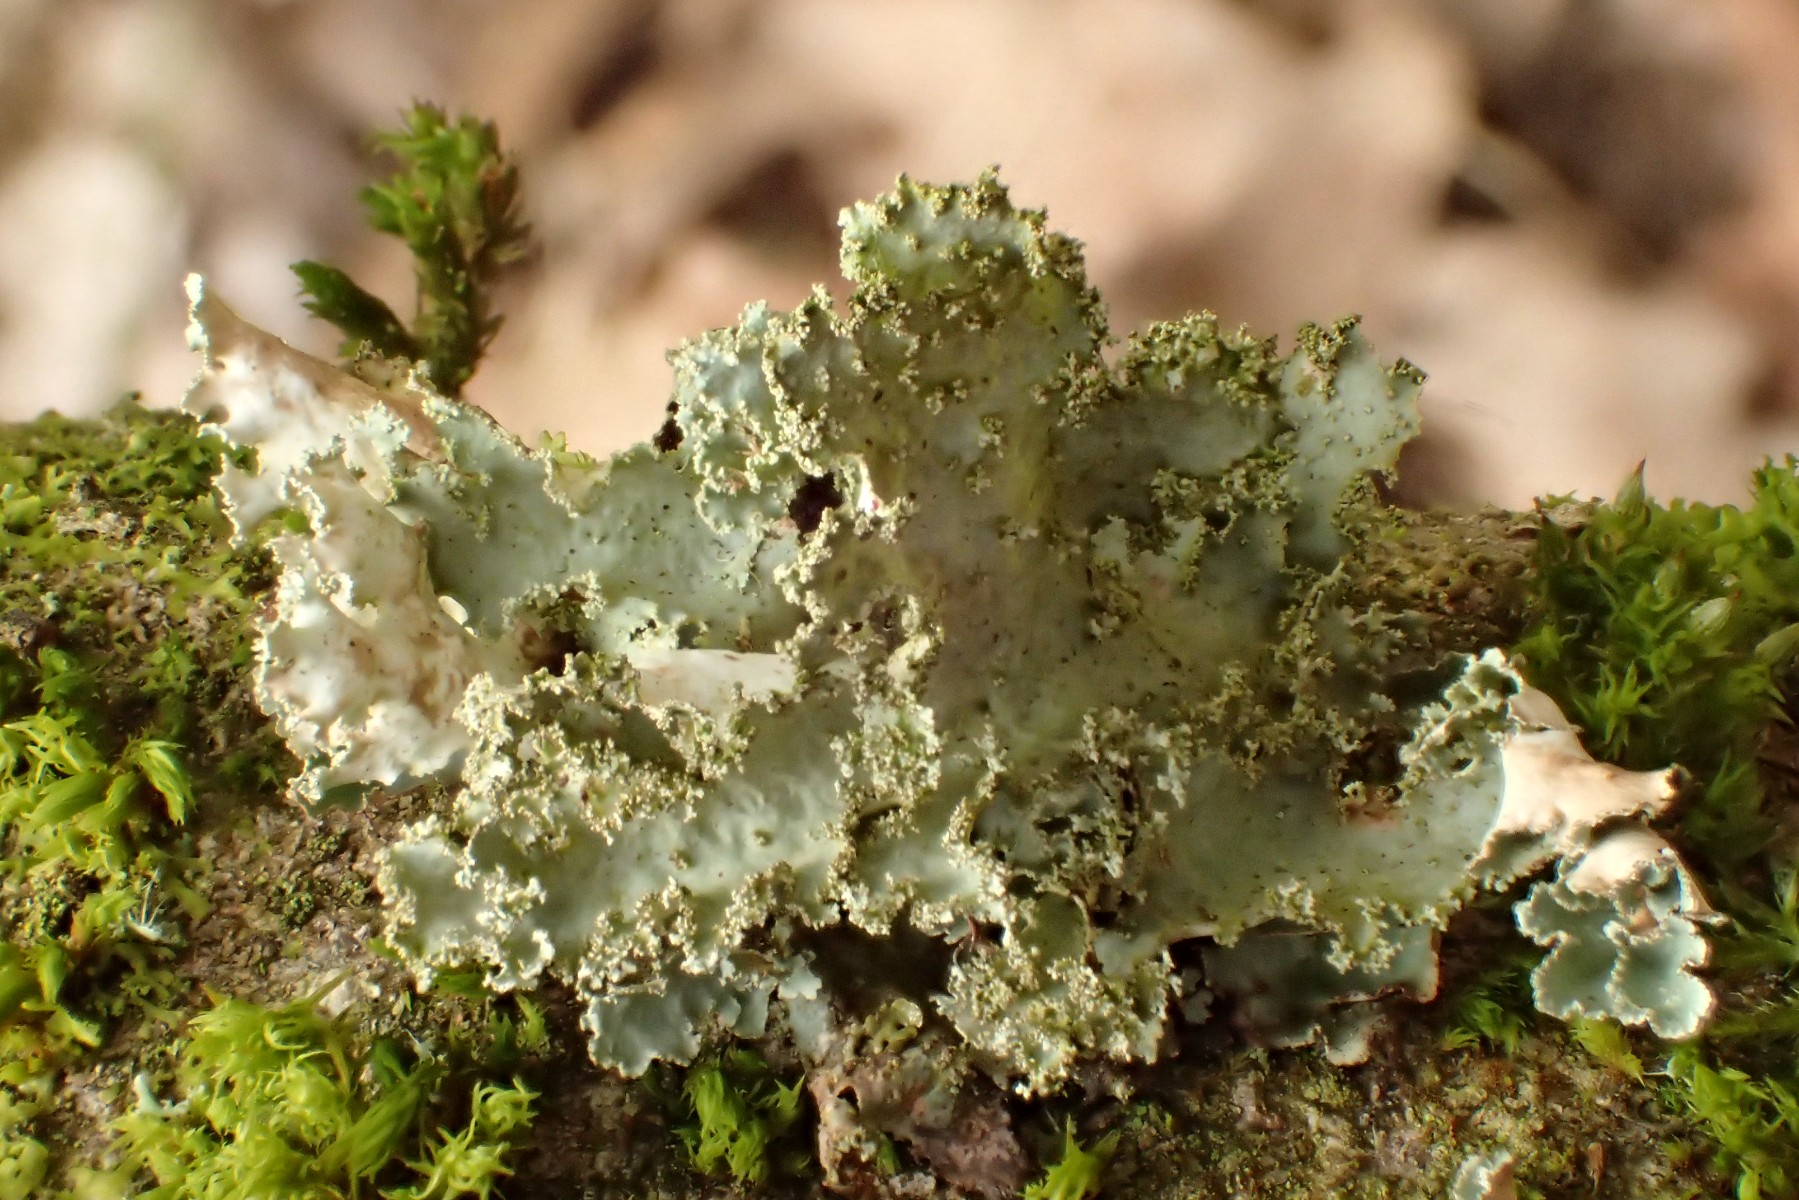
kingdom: Fungi
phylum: Ascomycota
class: Lecanoromycetes
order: Lecanorales
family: Parmeliaceae
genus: Platismatia
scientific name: Platismatia glauca
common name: blågrå papirlav
